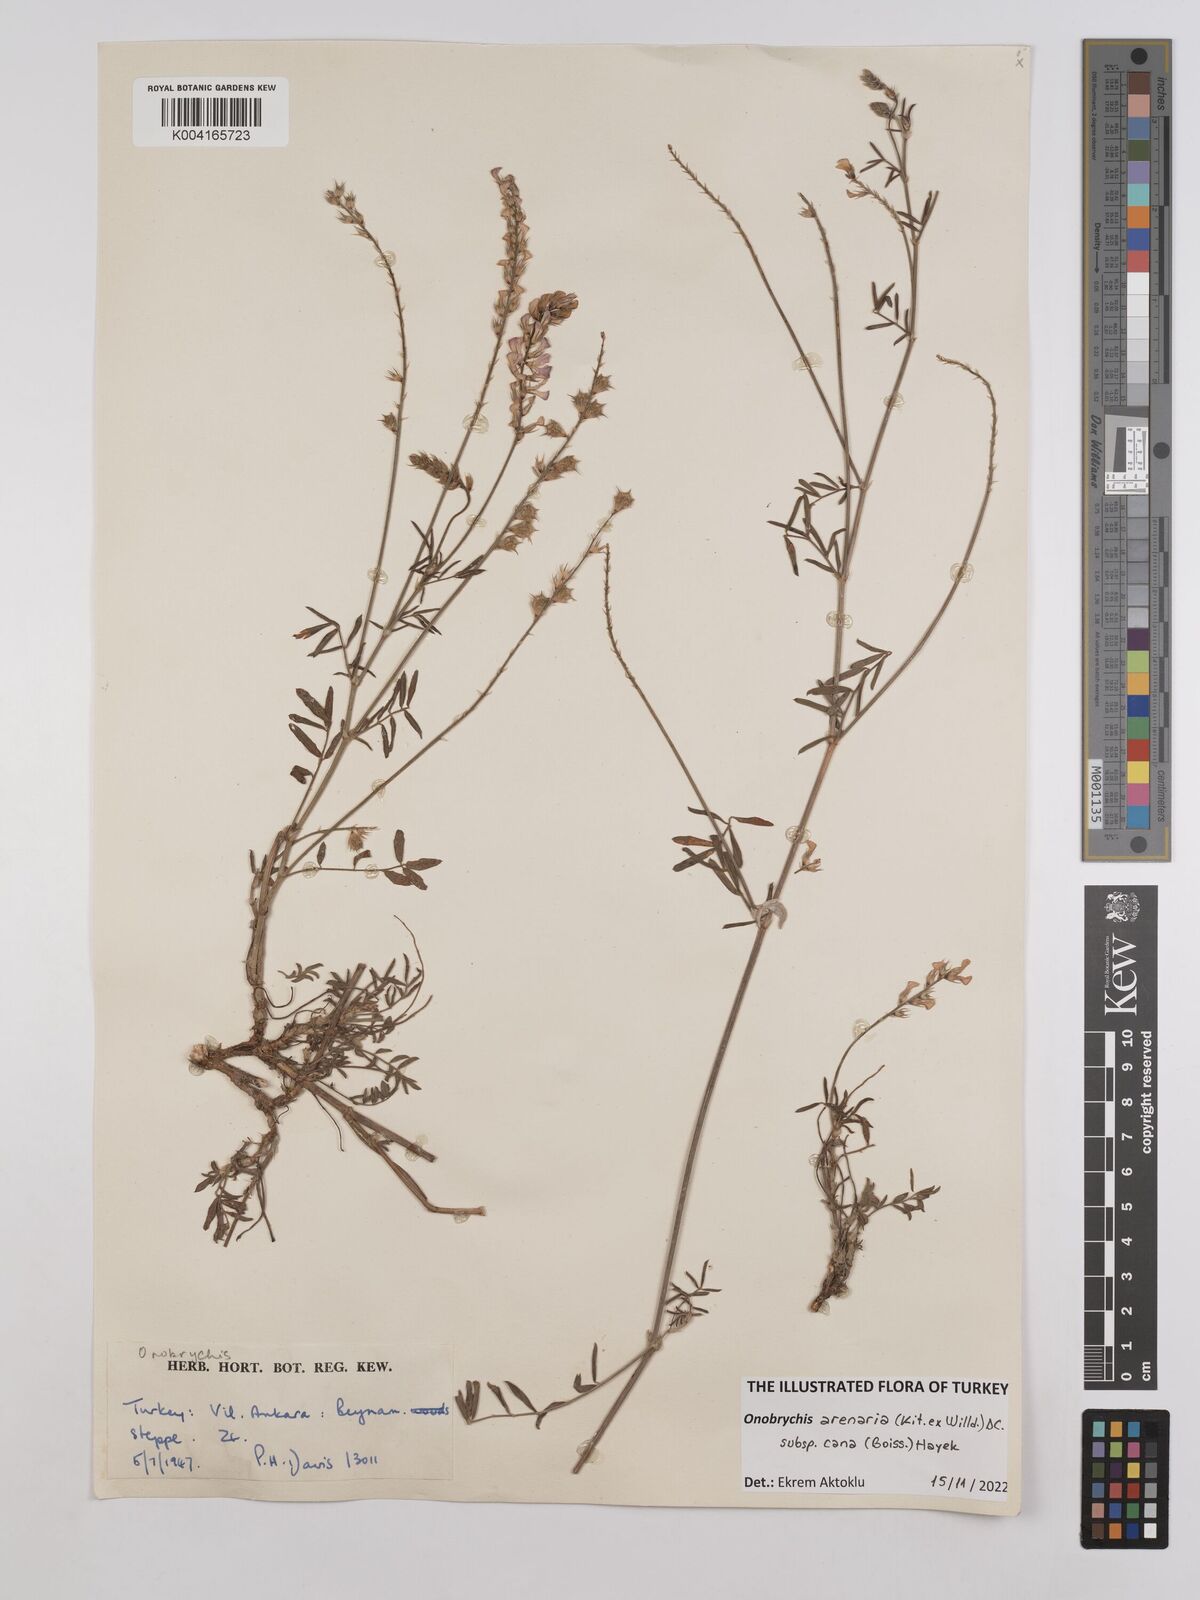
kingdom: Plantae
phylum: Tracheophyta
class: Magnoliopsida
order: Fabales
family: Fabaceae
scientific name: Fabaceae
